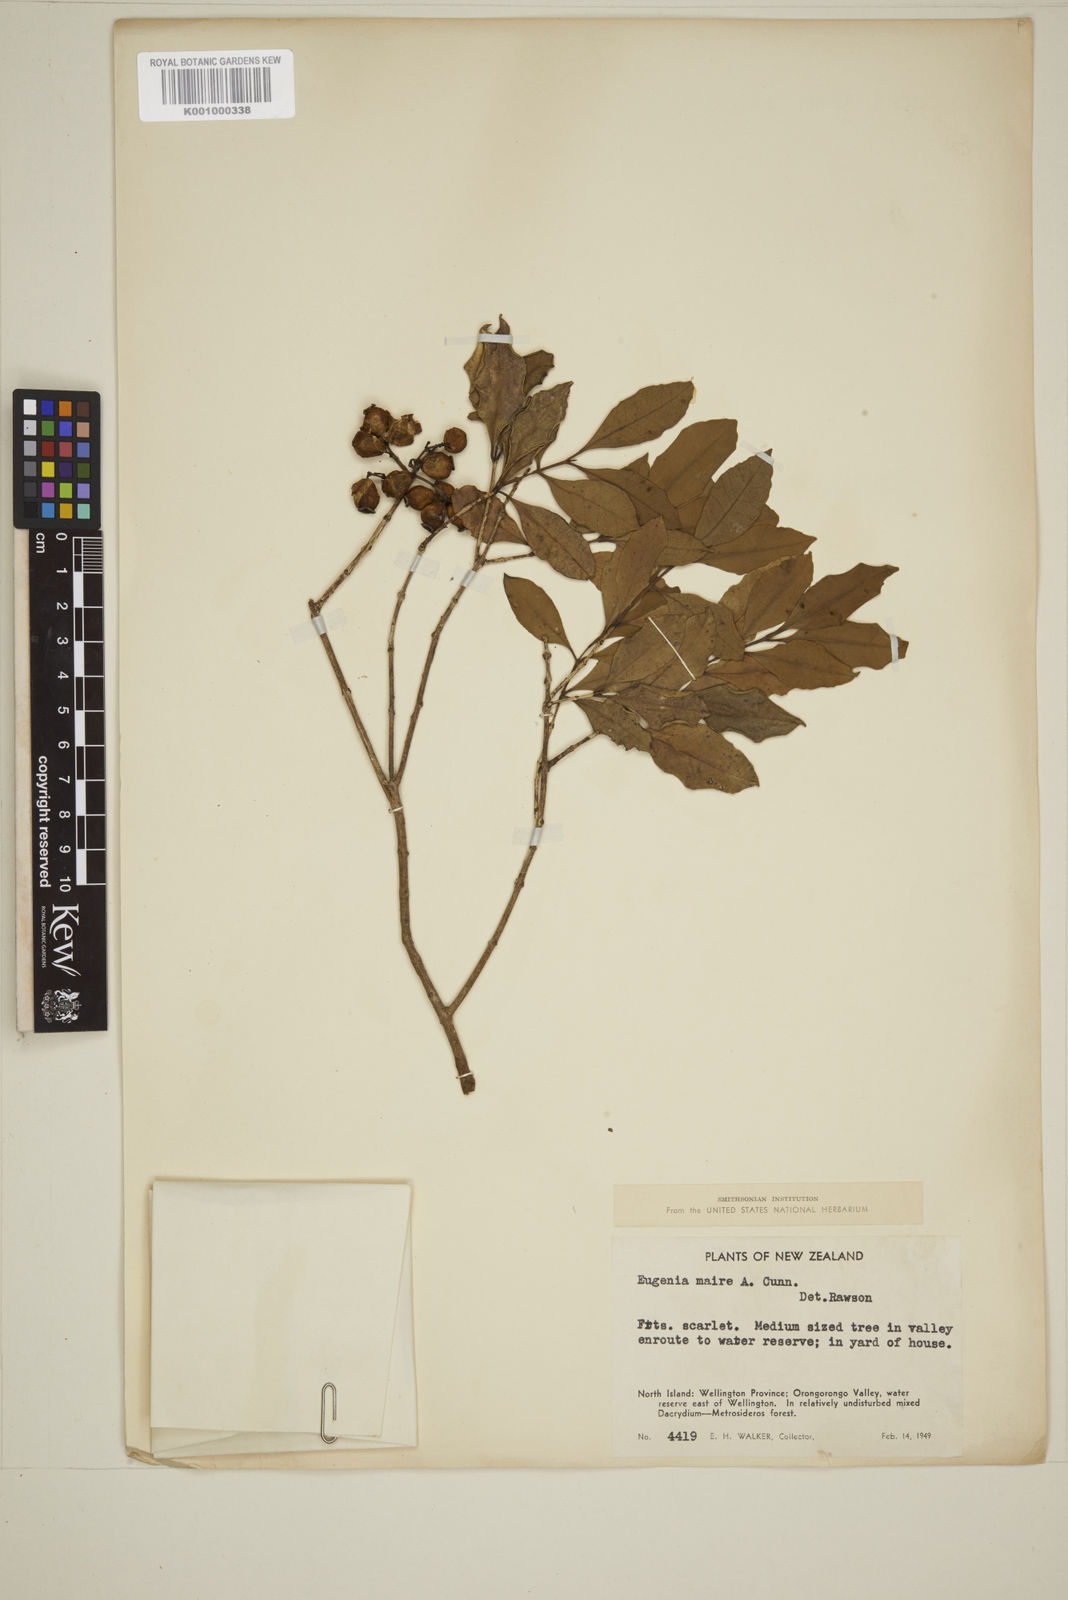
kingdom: Plantae
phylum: Tracheophyta
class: Magnoliopsida
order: Myrtales
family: Myrtaceae
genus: Syzygium
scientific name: Syzygium maire
